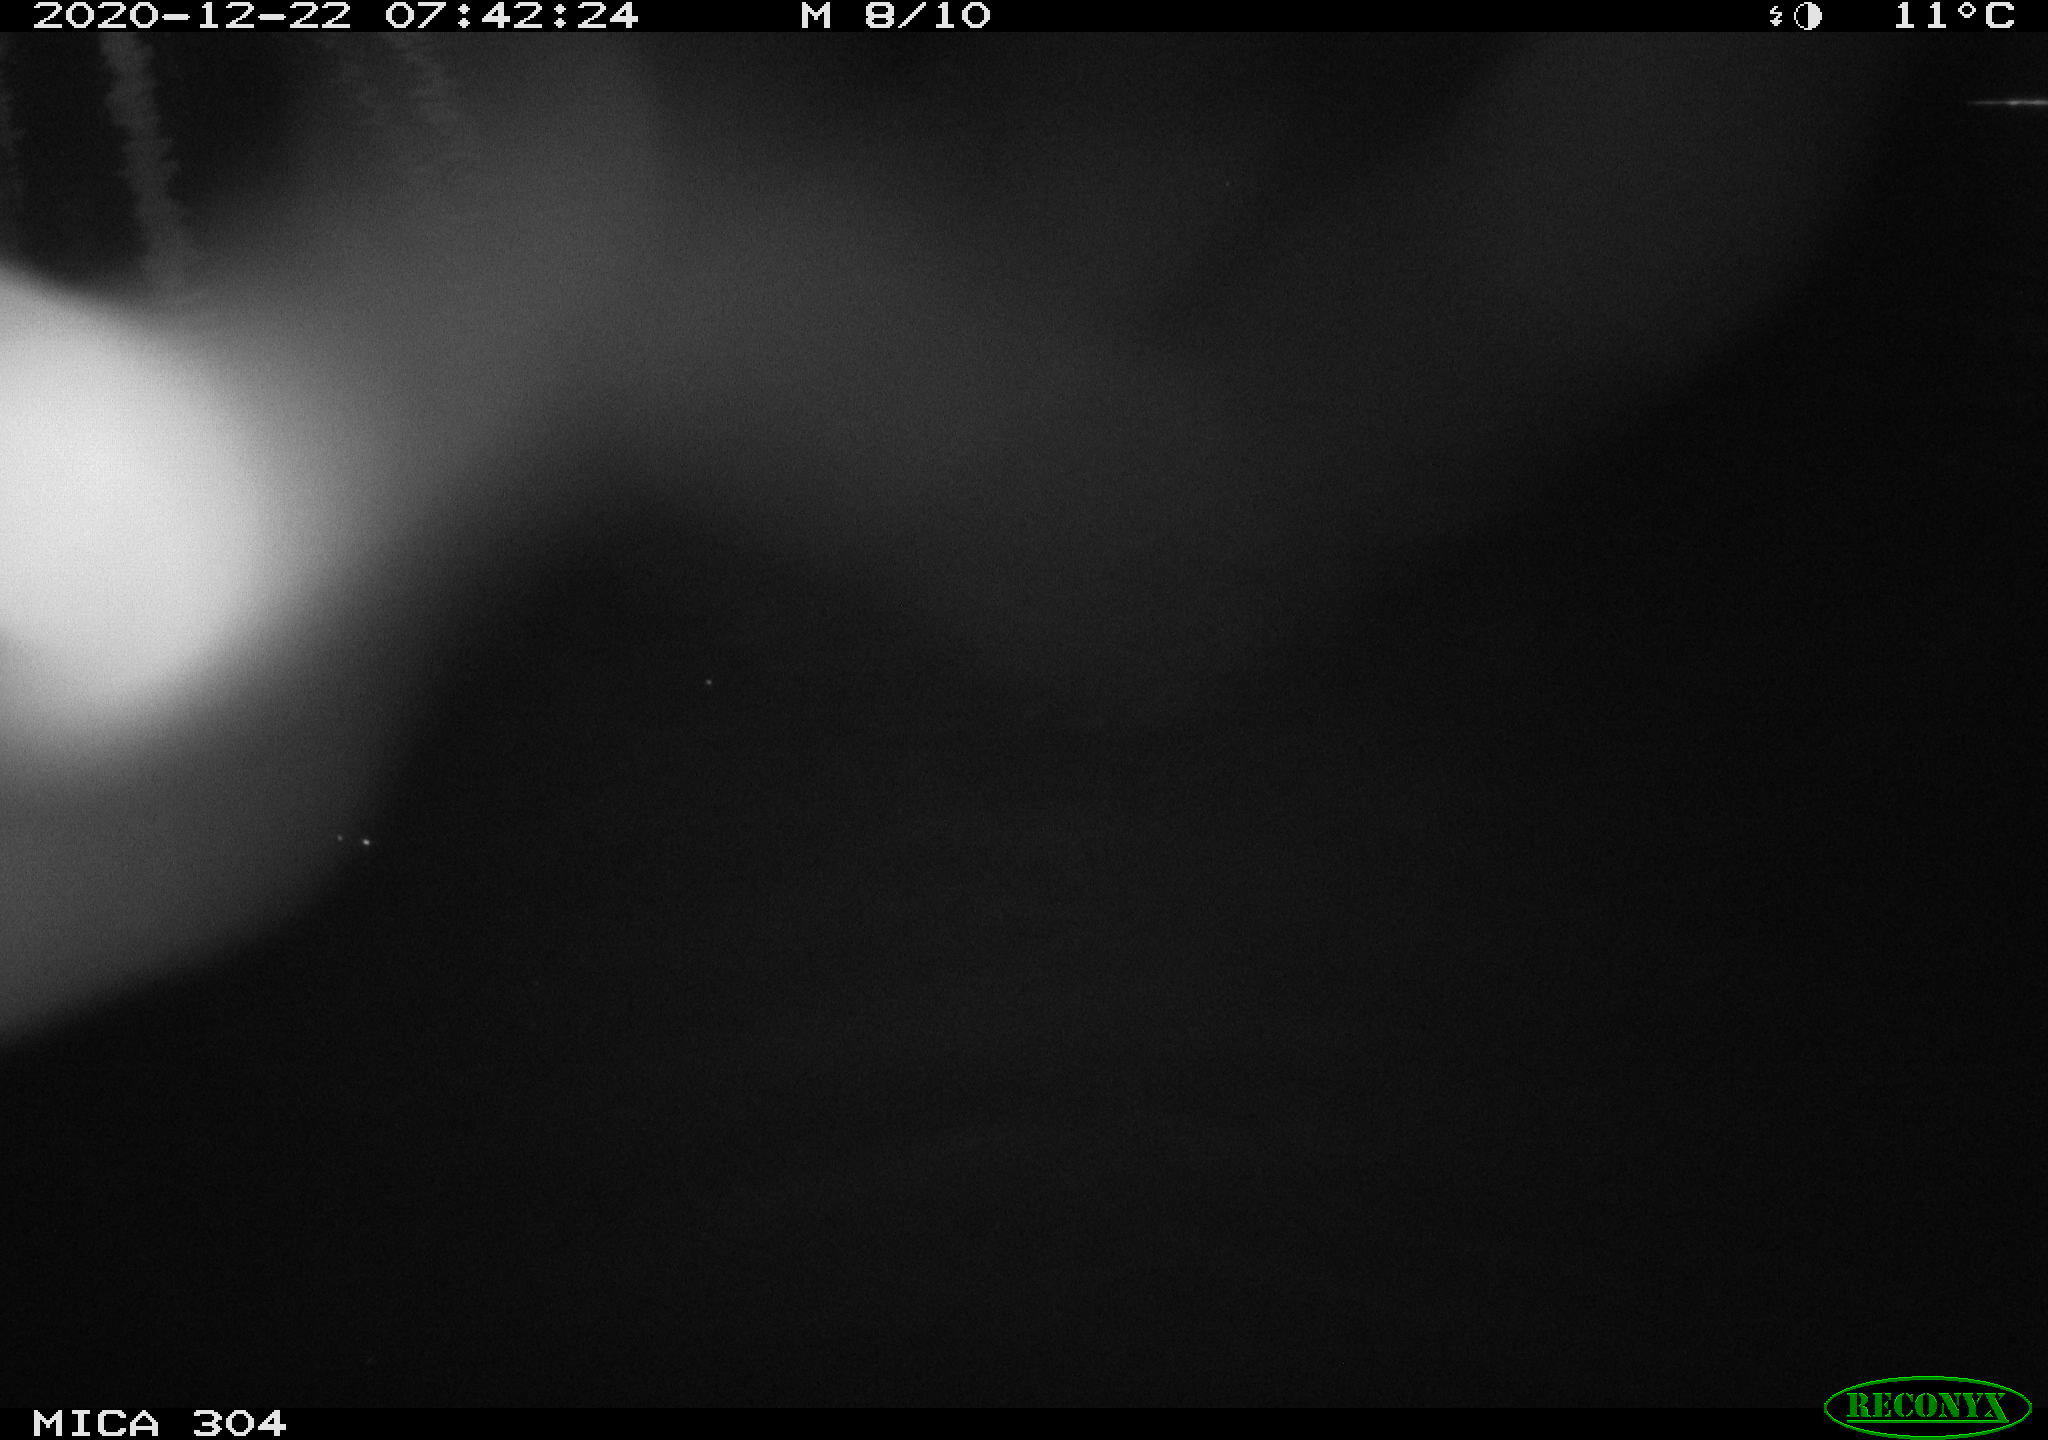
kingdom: Animalia
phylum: Chordata
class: Aves
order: Gruiformes
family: Rallidae
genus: Gallinula
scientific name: Gallinula chloropus
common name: Common moorhen
